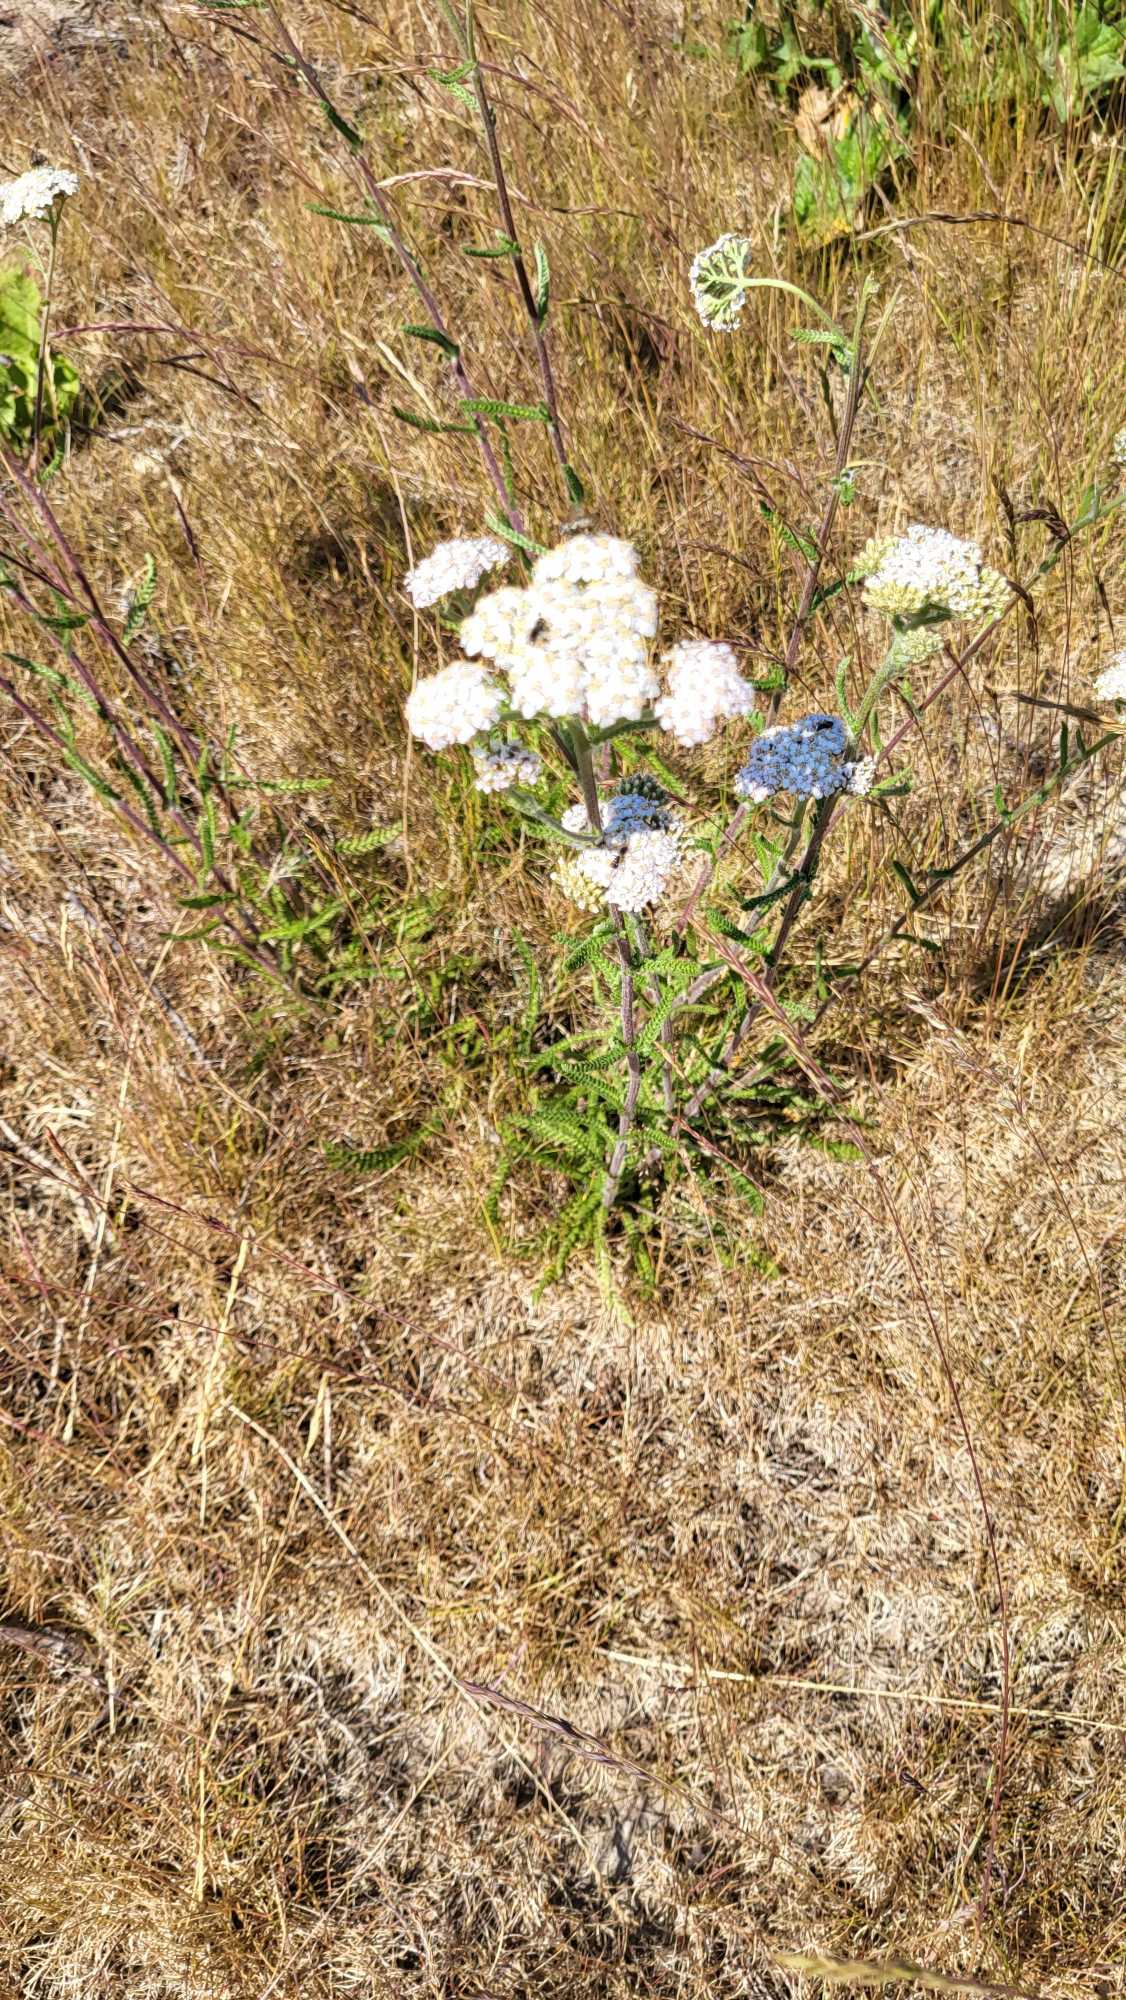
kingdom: Plantae
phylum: Tracheophyta
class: Magnoliopsida
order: Asterales
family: Asteraceae
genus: Achillea
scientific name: Achillea millefolium
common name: Almindelig røllike
